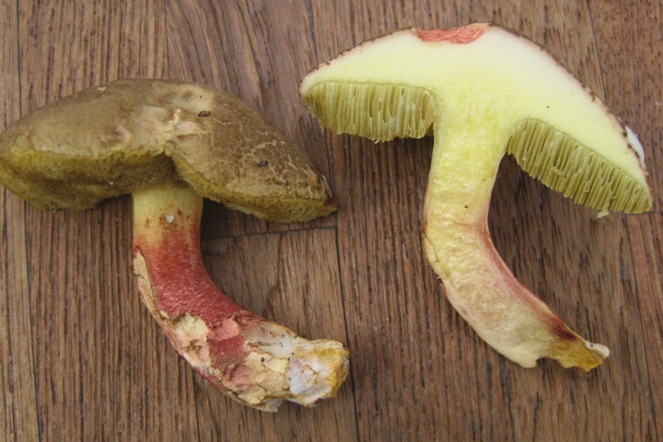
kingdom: Fungi
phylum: Basidiomycota
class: Agaricomycetes
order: Boletales
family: Boletaceae
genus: Xerocomellus
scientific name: Xerocomellus chrysenteron
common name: rødsprukken rørhat
